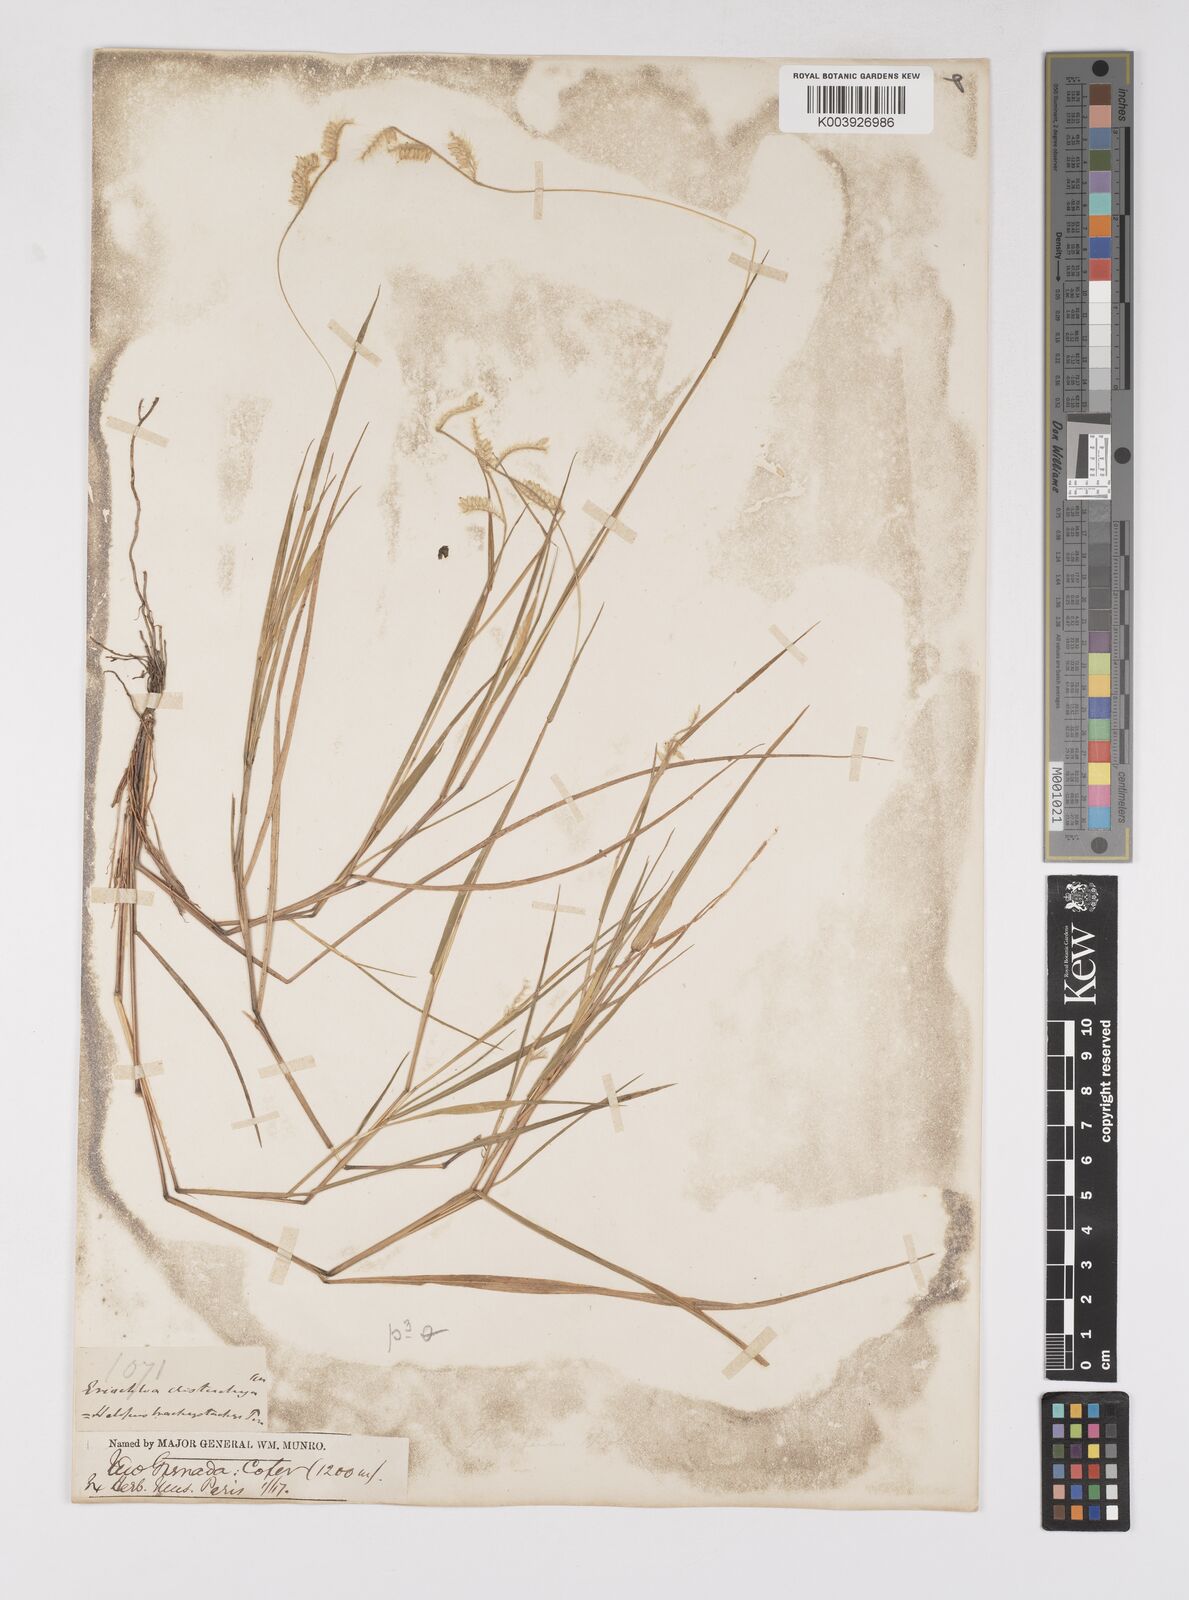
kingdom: Plantae
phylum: Tracheophyta
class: Liliopsida
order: Poales
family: Poaceae
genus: Eriochloa
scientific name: Eriochloa distachya
